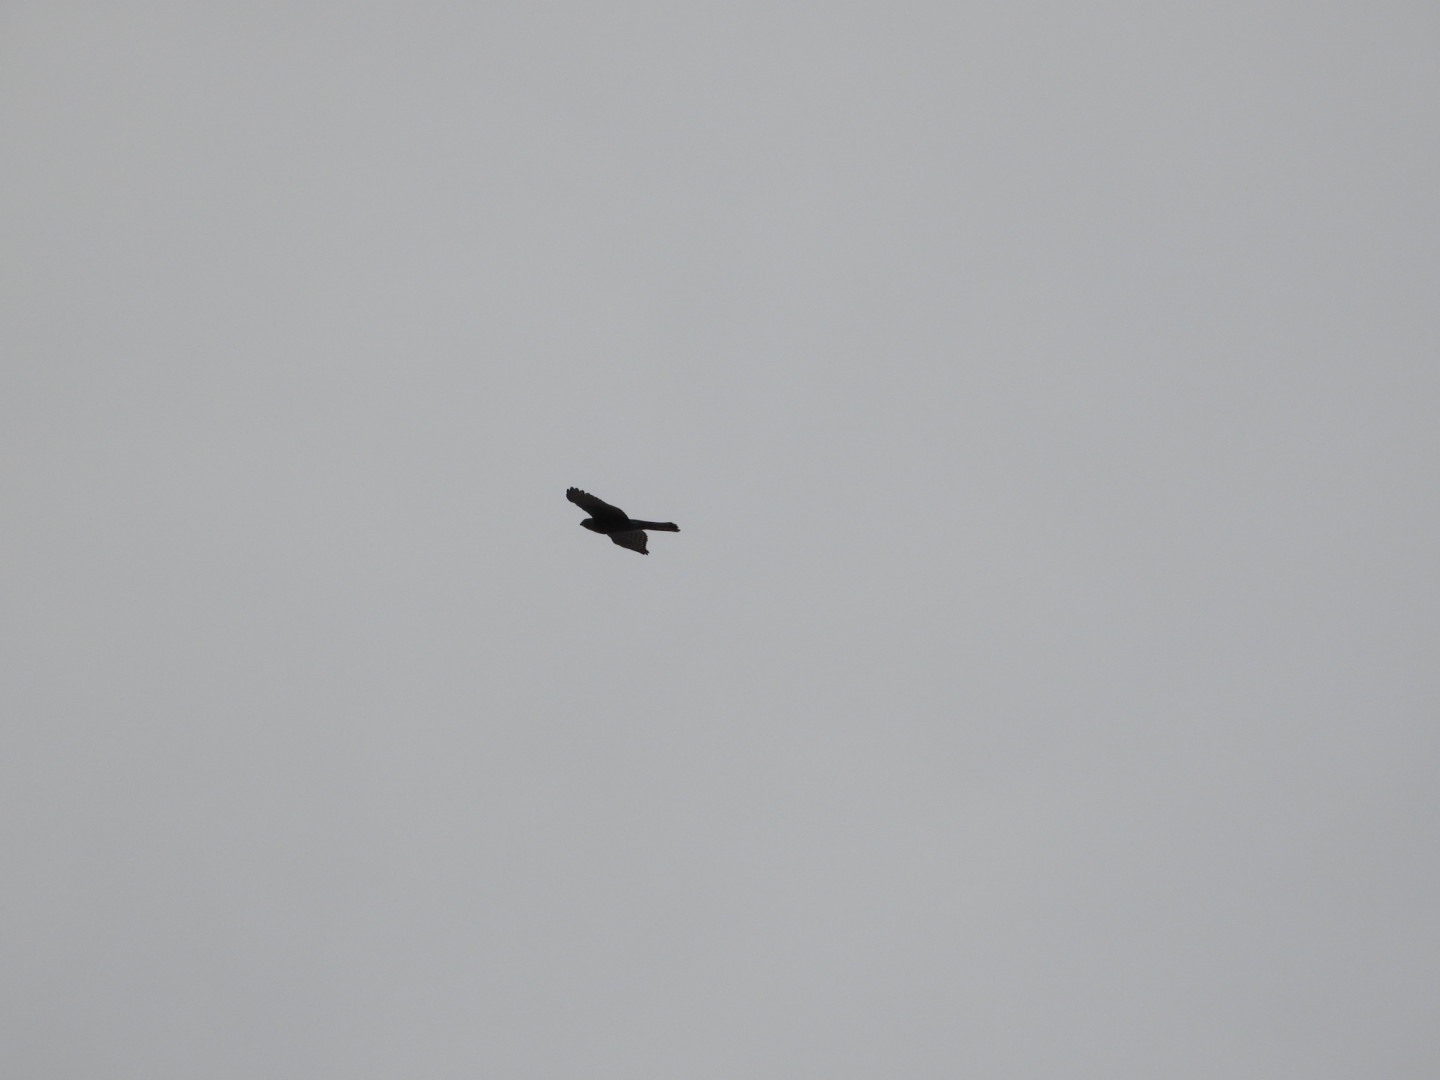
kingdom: Animalia
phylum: Chordata
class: Aves
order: Accipitriformes
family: Accipitridae
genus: Accipiter
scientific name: Accipiter nisus
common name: Spurvehøg
